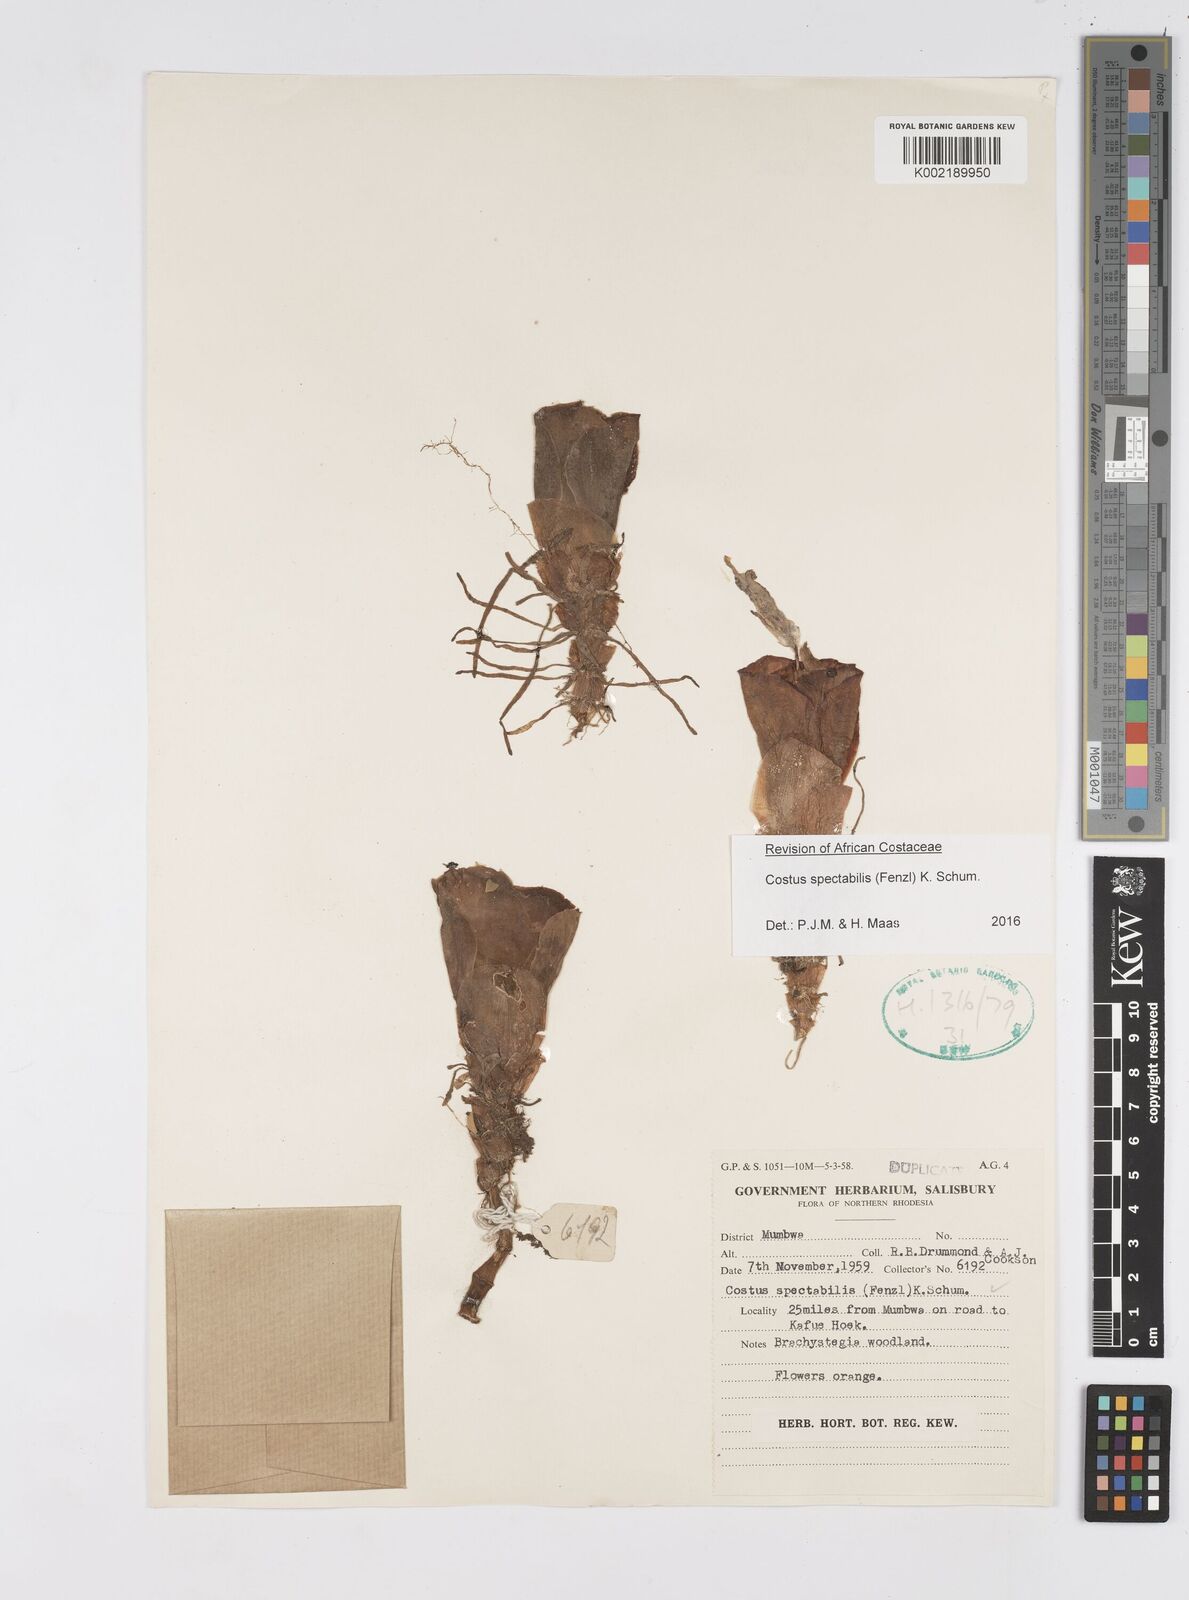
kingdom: Plantae
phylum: Tracheophyta
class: Liliopsida
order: Zingiberales
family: Costaceae
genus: Costus
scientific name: Costus spectabilis
